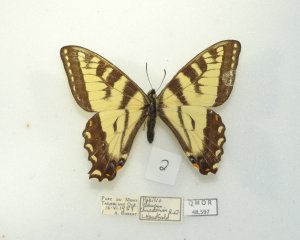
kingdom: Animalia
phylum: Arthropoda
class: Insecta
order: Lepidoptera
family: Papilionidae
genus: Pterourus
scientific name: Pterourus canadensis
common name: Canadian Tiger Swallowtail
